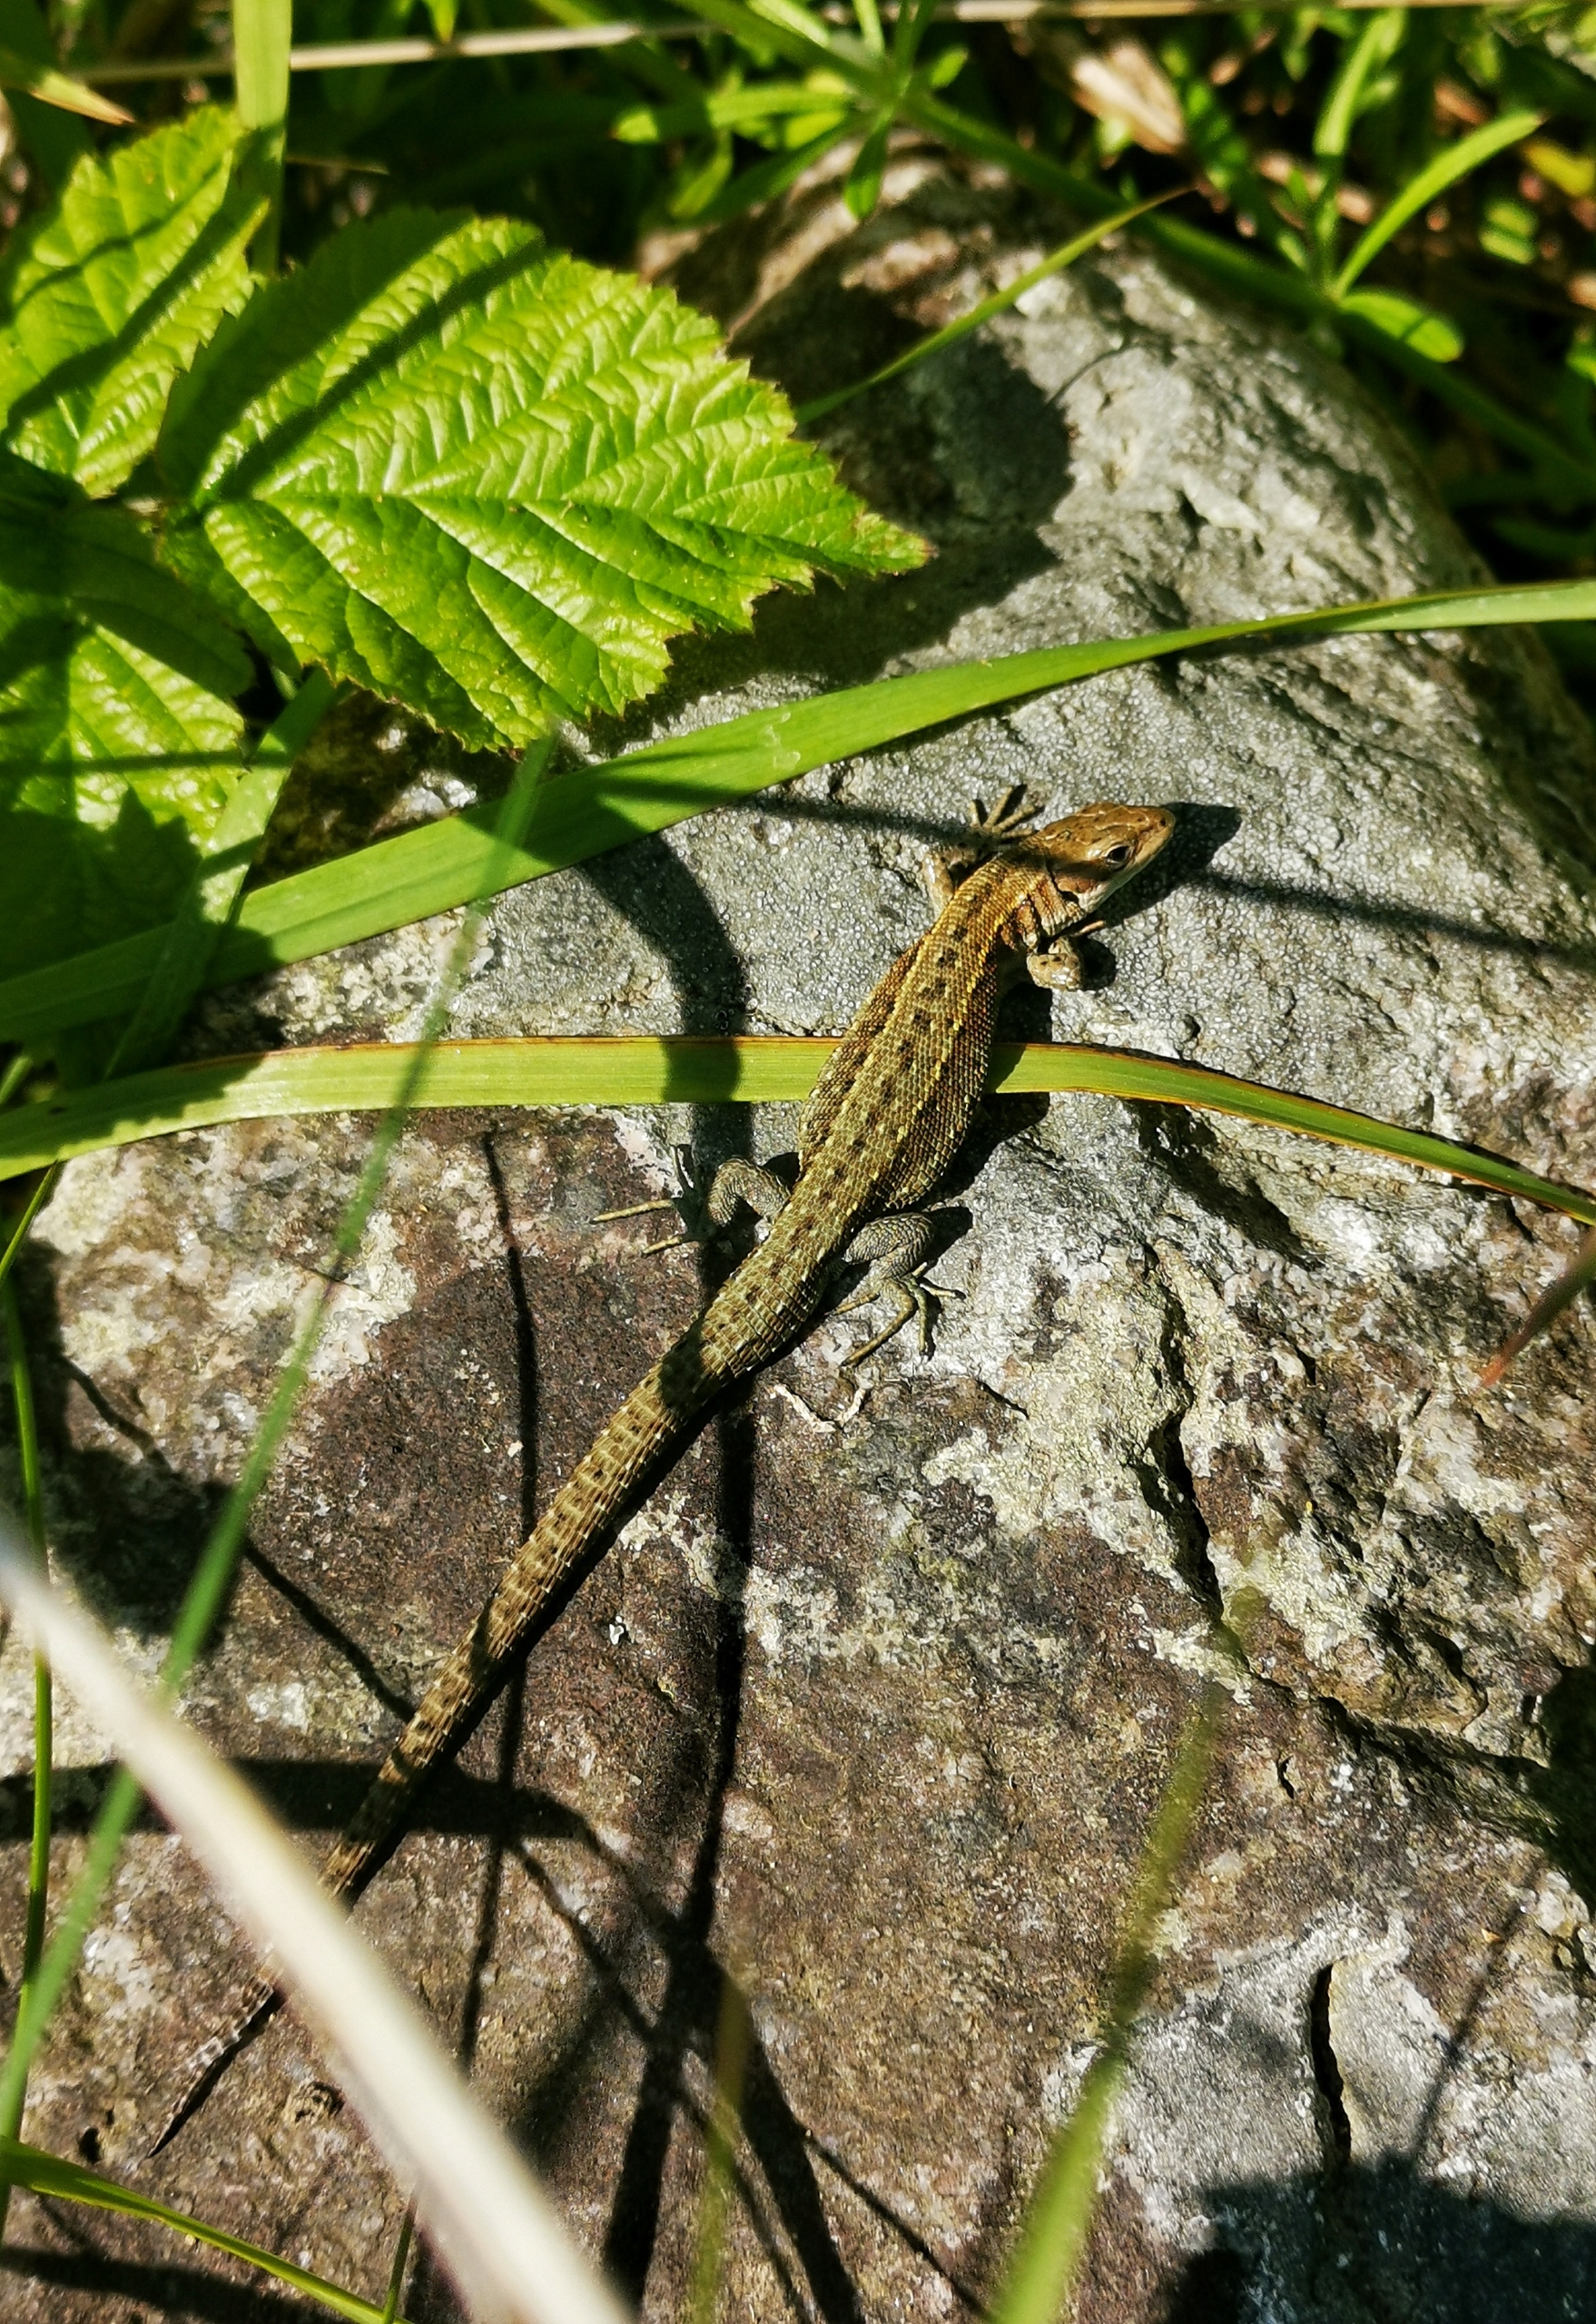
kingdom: Animalia
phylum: Chordata
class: Squamata
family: Lacertidae
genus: Zootoca
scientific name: Zootoca vivipara
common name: Skovfirben
